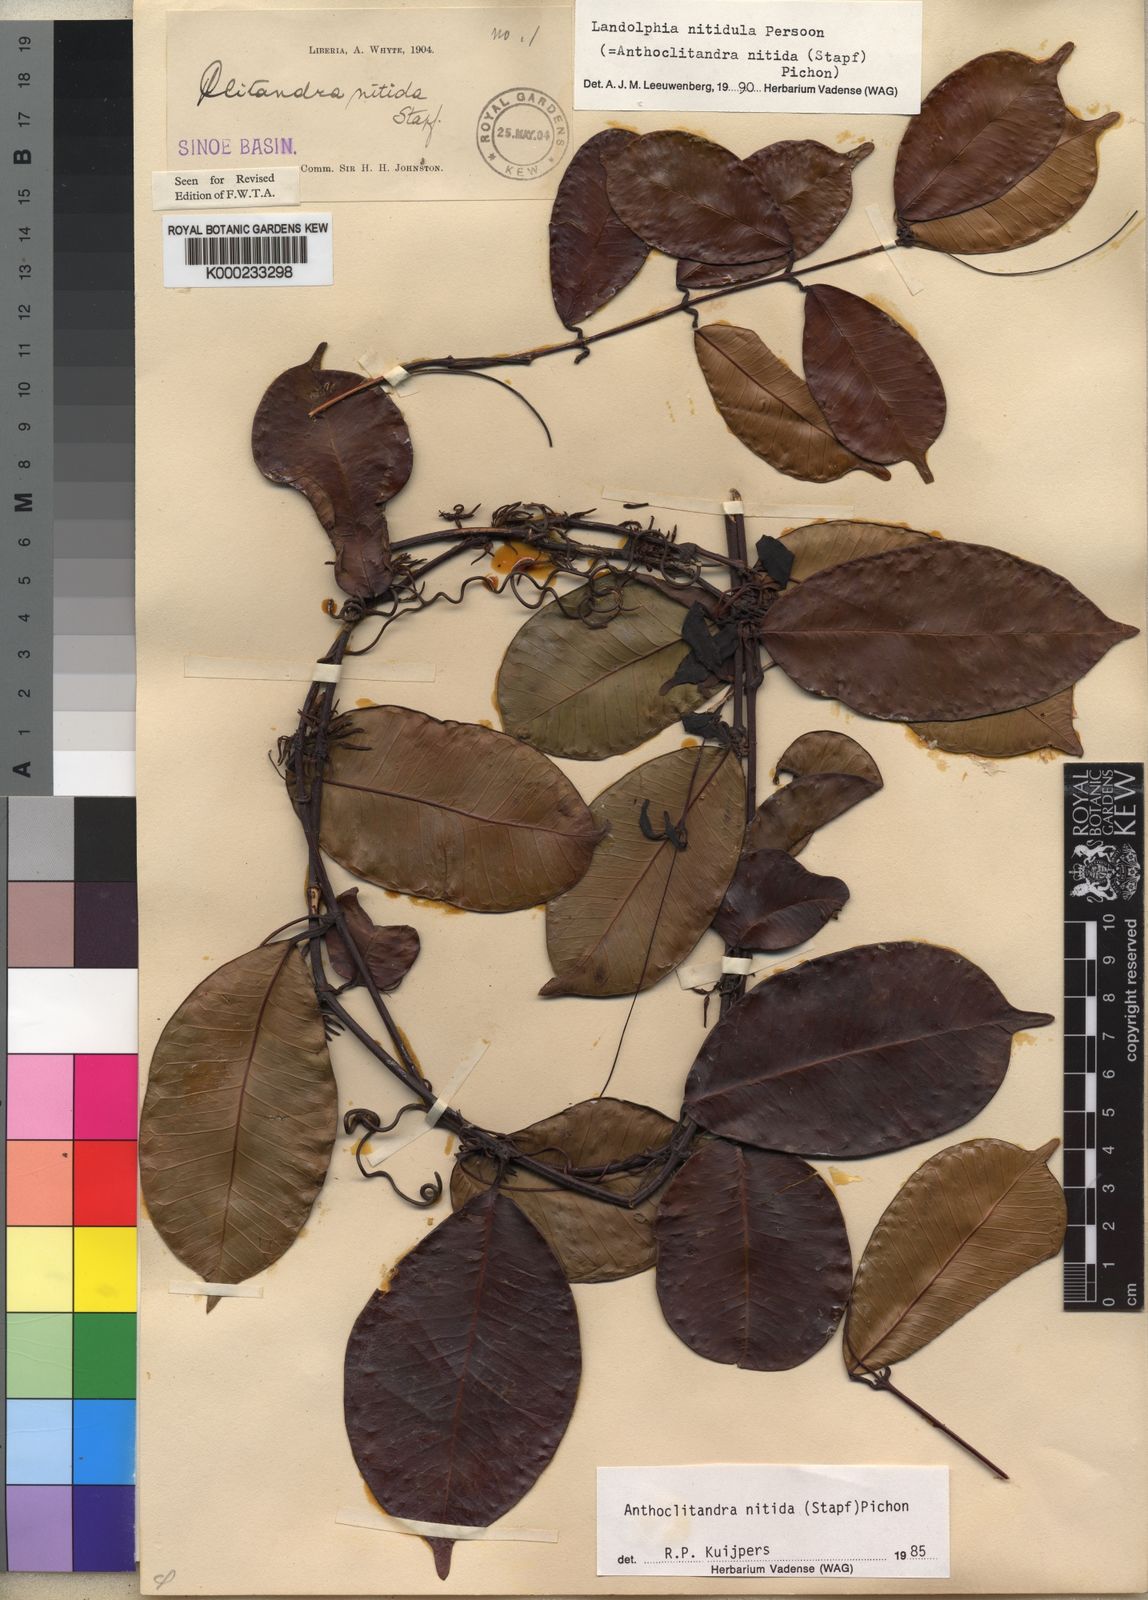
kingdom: Plantae
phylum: Tracheophyta
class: Magnoliopsida
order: Gentianales
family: Apocynaceae
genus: Landolphia
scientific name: Landolphia nitidula
